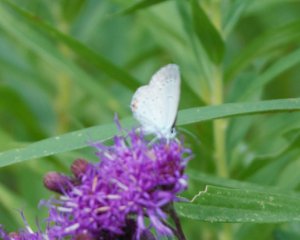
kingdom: Animalia
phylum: Arthropoda
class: Insecta
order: Lepidoptera
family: Lycaenidae
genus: Elkalyce
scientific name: Elkalyce comyntas
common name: Eastern Tailed-Blue
